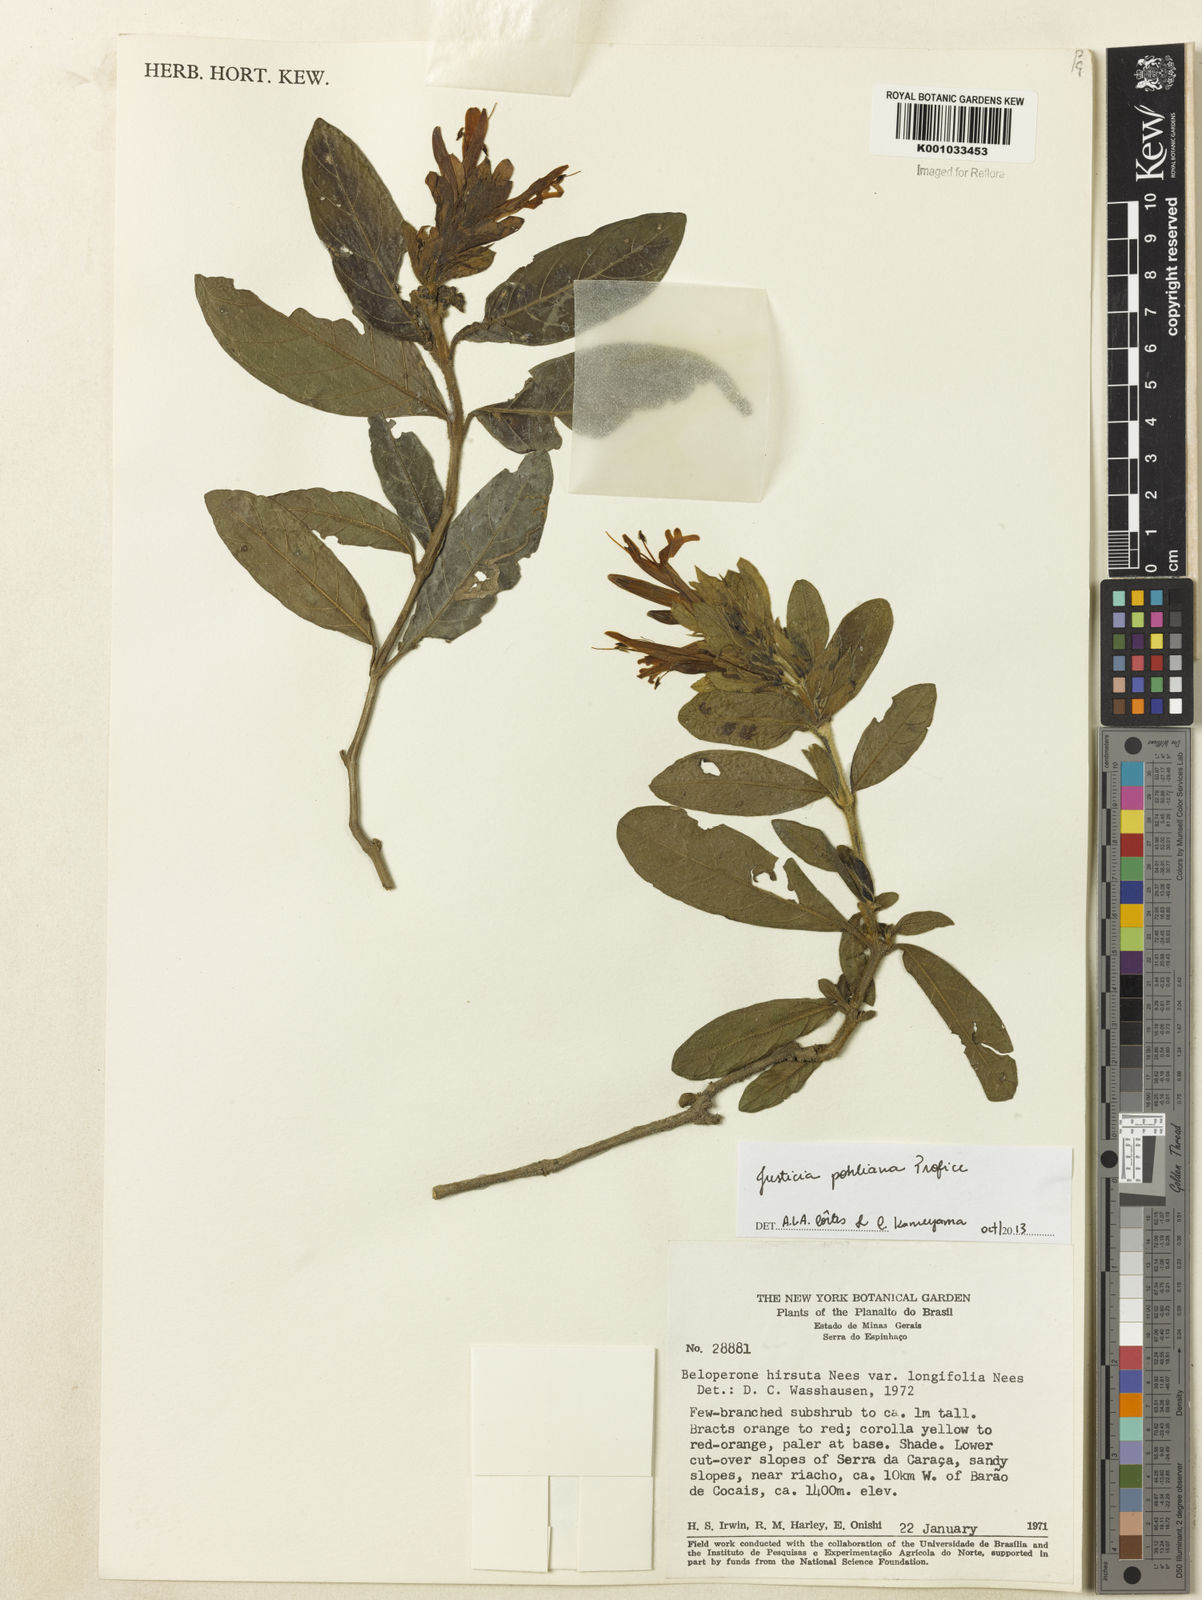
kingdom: Plantae
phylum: Tracheophyta
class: Magnoliopsida
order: Lamiales
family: Acanthaceae
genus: Justicia
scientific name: Justicia pohliana
